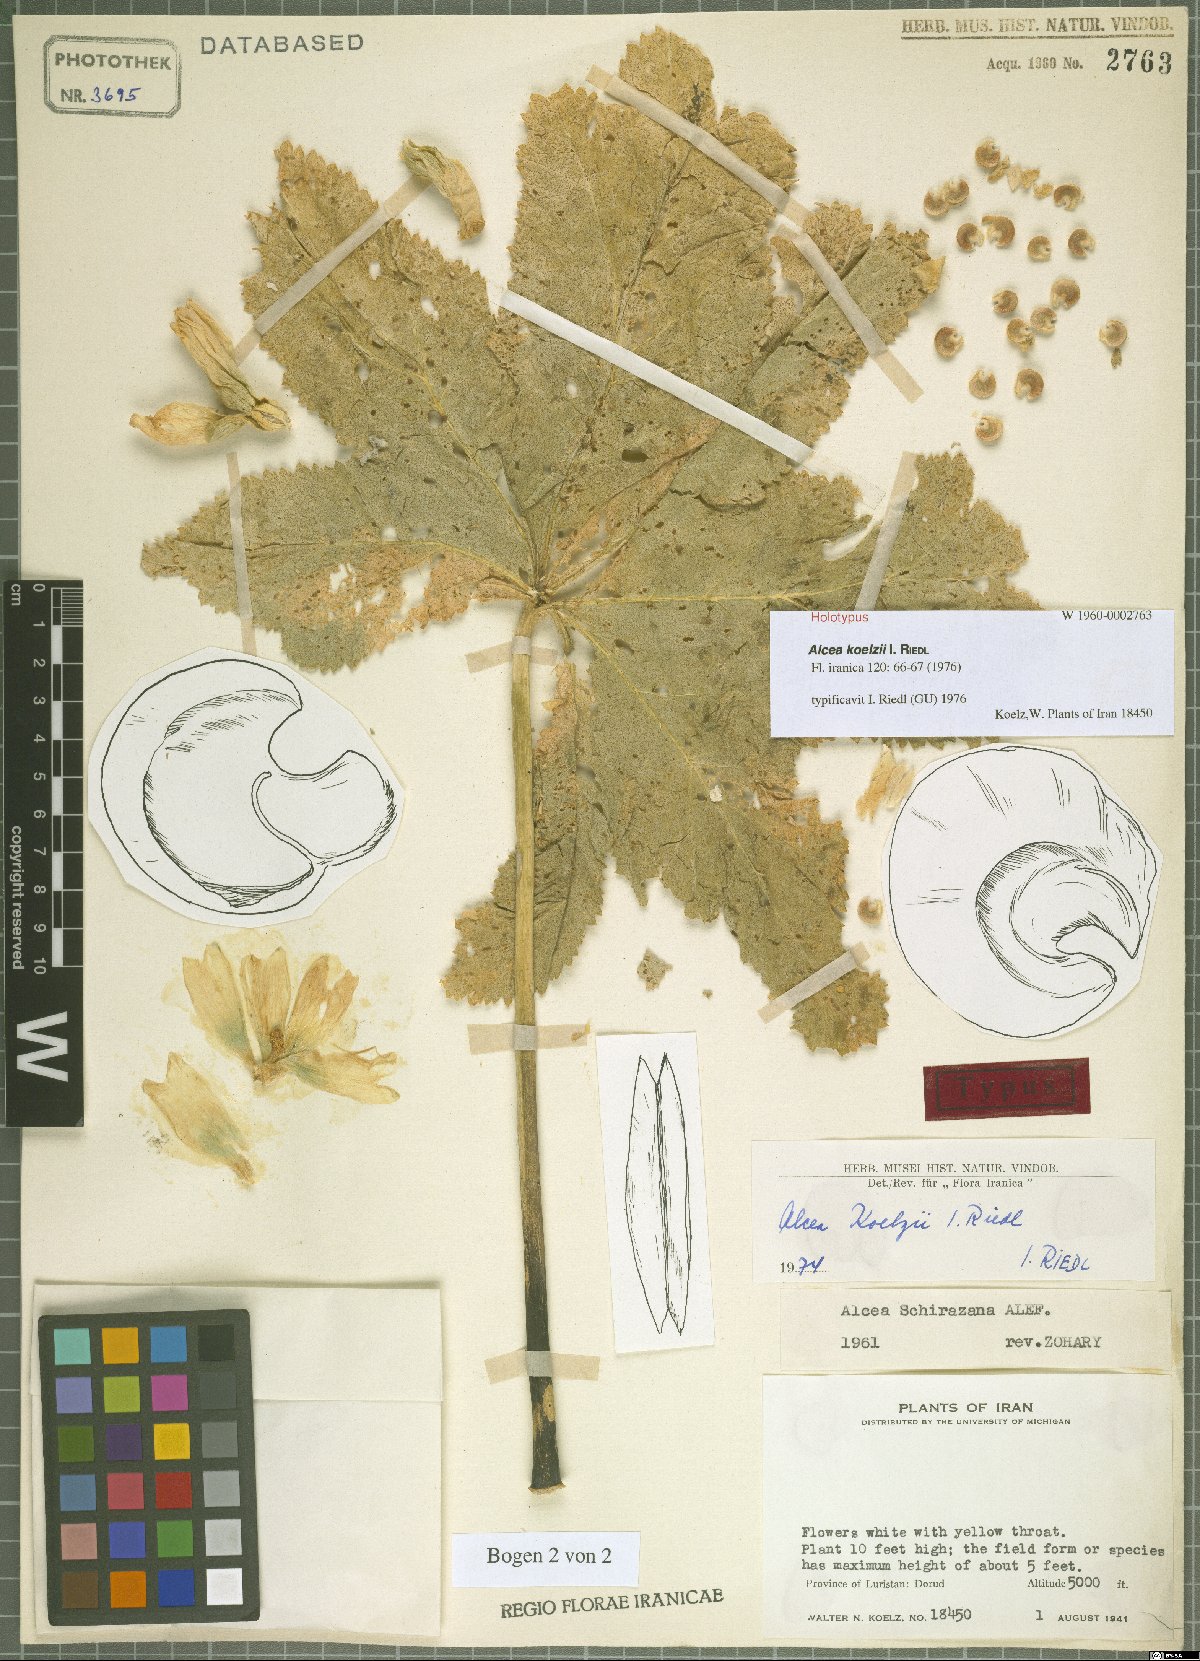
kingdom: Plantae
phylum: Tracheophyta
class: Magnoliopsida
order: Malvales
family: Malvaceae
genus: Alcea
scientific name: Alcea koelzii
